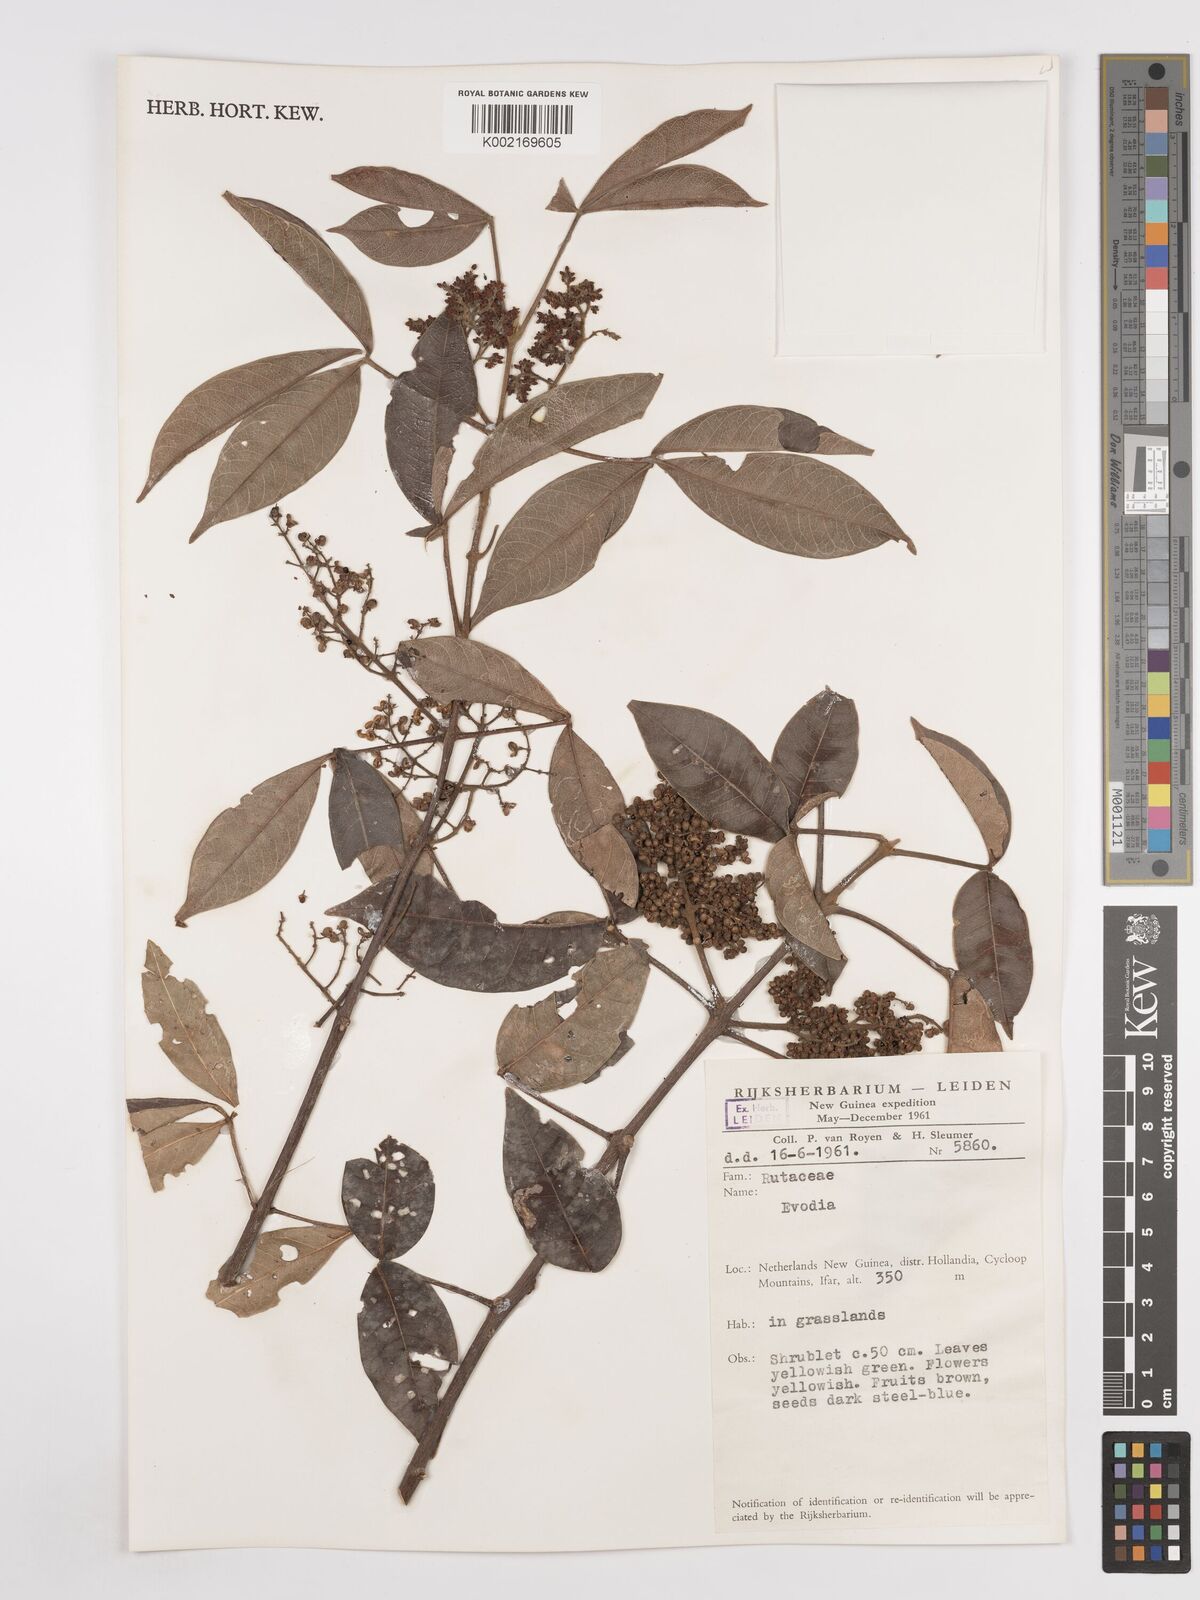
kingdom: Plantae
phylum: Tracheophyta
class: Magnoliopsida
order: Sapindales
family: Rutaceae
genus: Euodia
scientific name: Euodia
